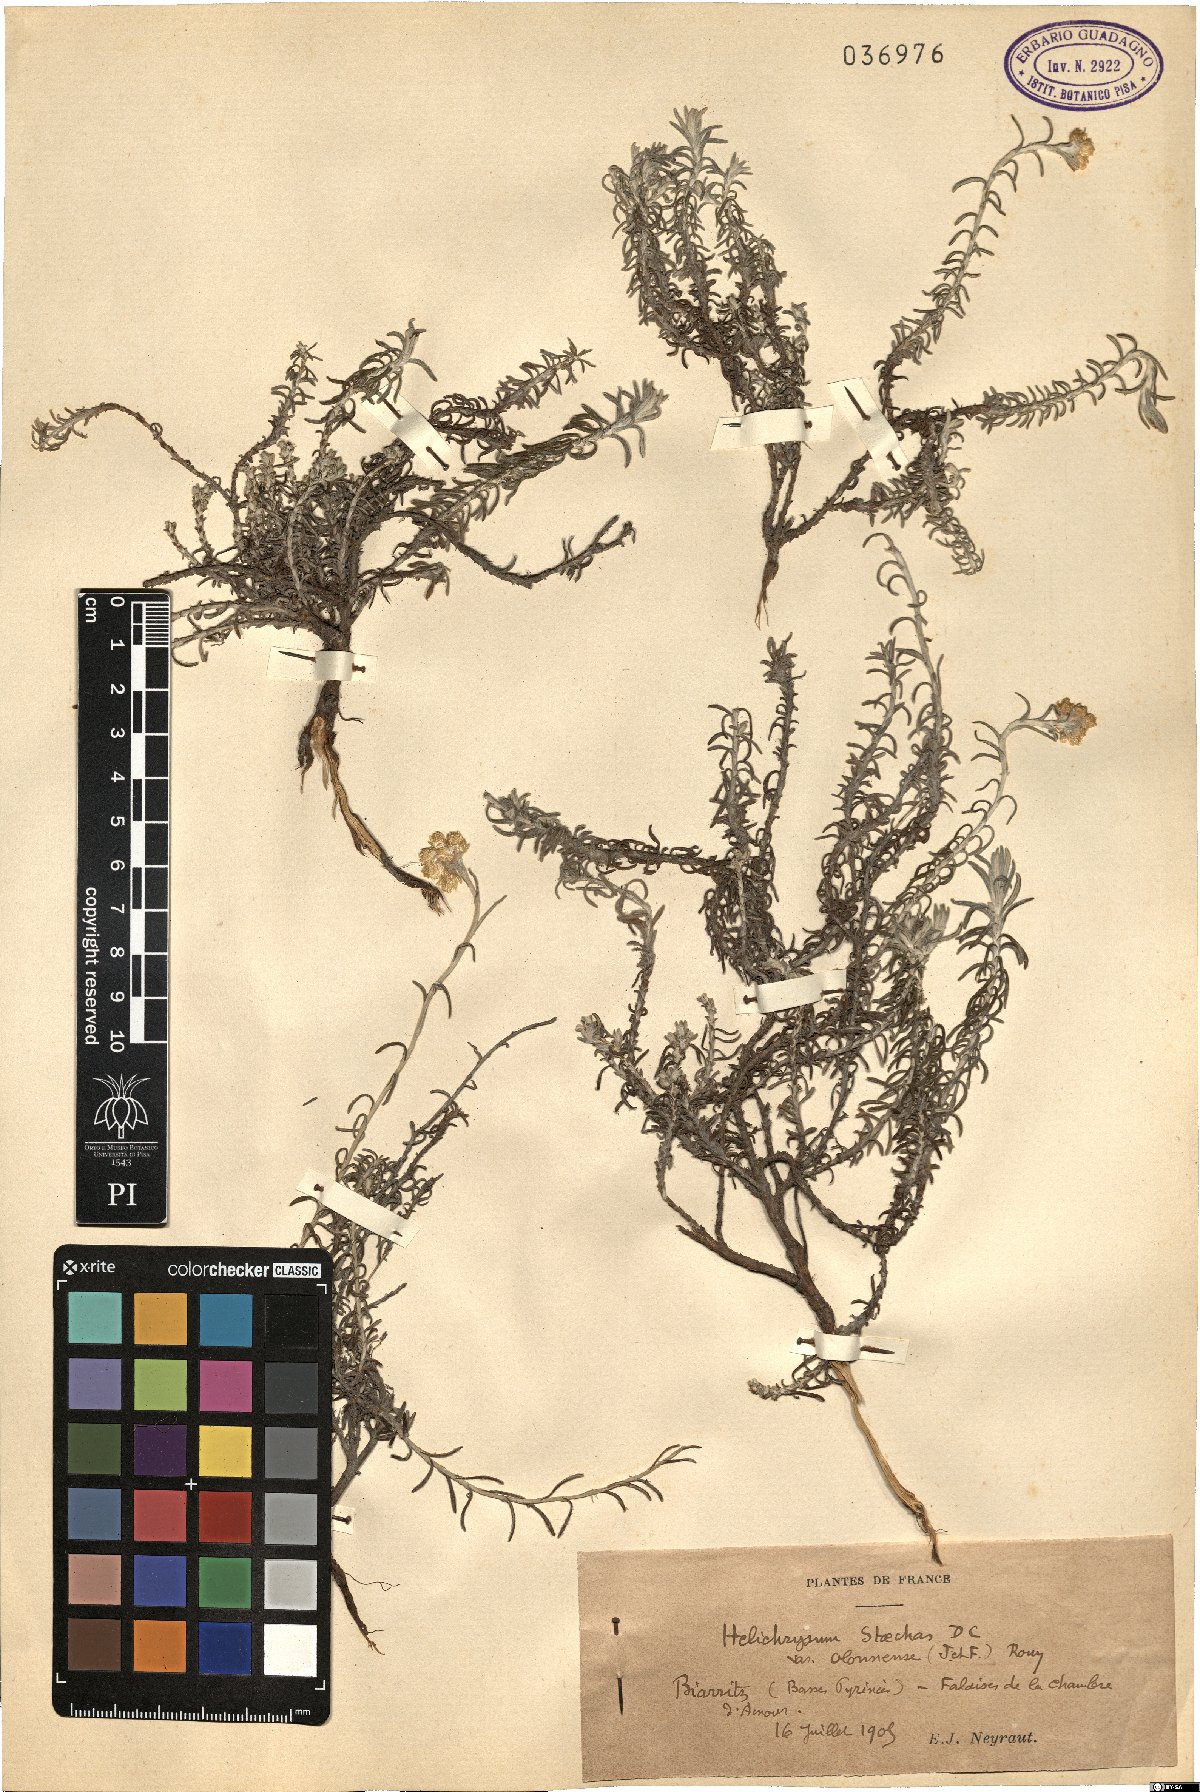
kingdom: Plantae
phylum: Tracheophyta
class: Magnoliopsida
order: Asterales
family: Asteraceae
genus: Helichrysum
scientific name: Helichrysum stoechas
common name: Goldilocks
